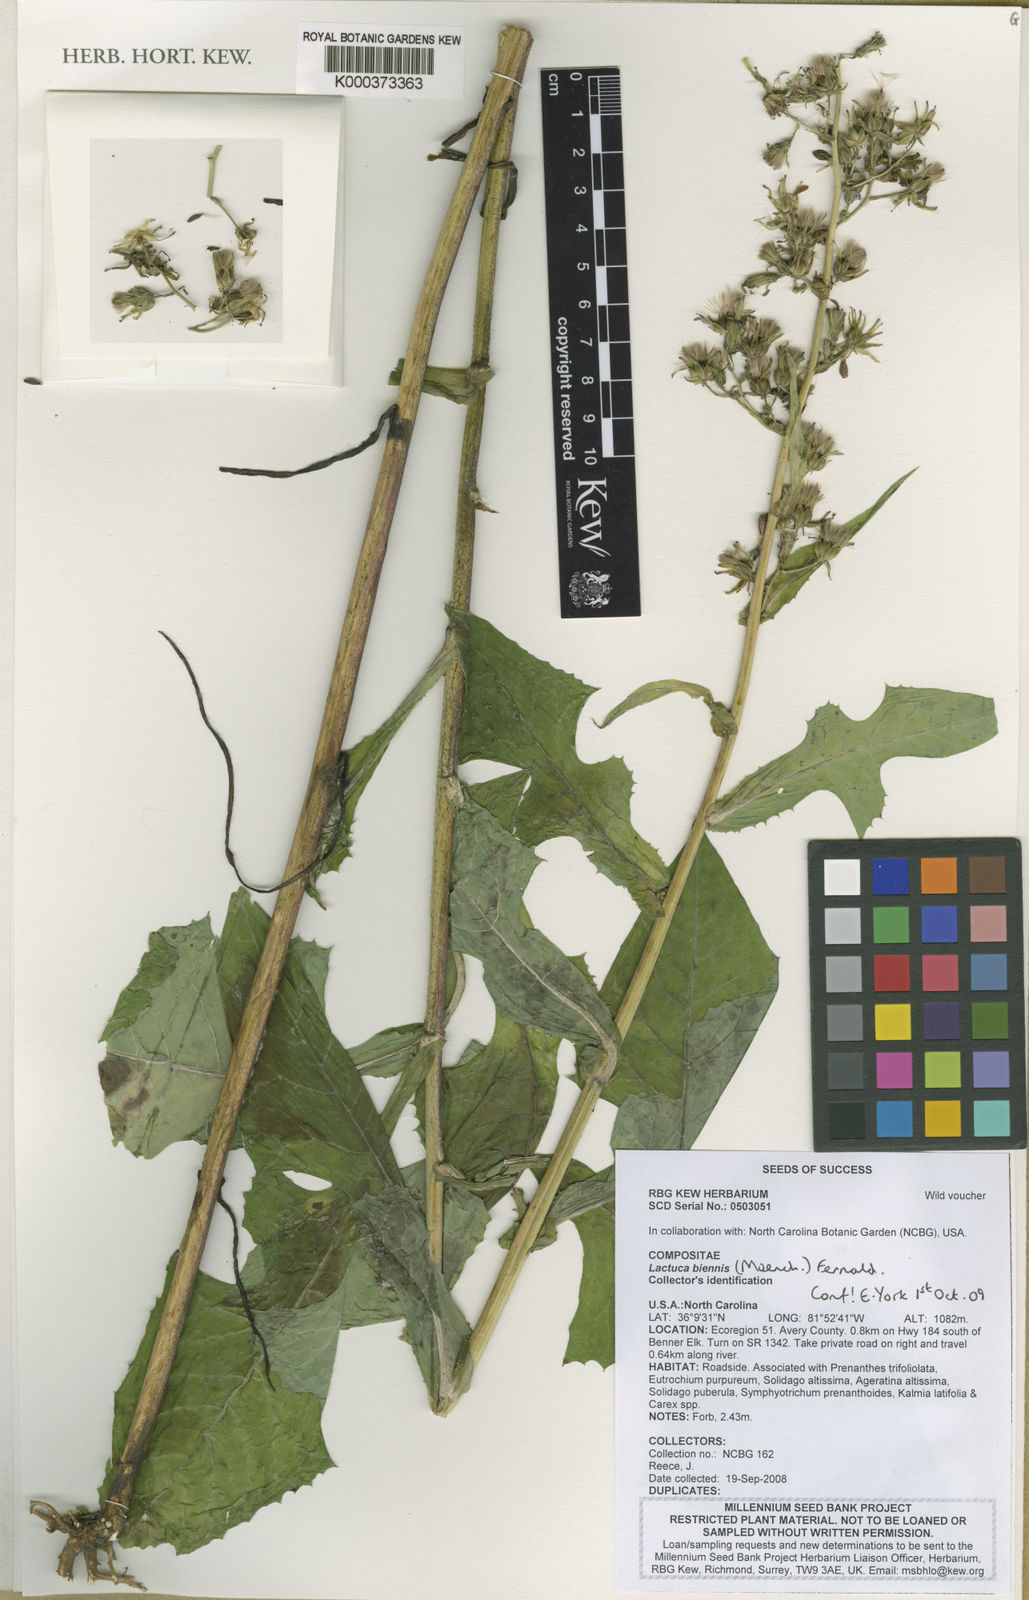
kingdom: Plantae
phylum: Tracheophyta
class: Magnoliopsida
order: Asterales
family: Asteraceae
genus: Lactuca
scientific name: Lactuca biennis
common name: Blue wood lettuce
